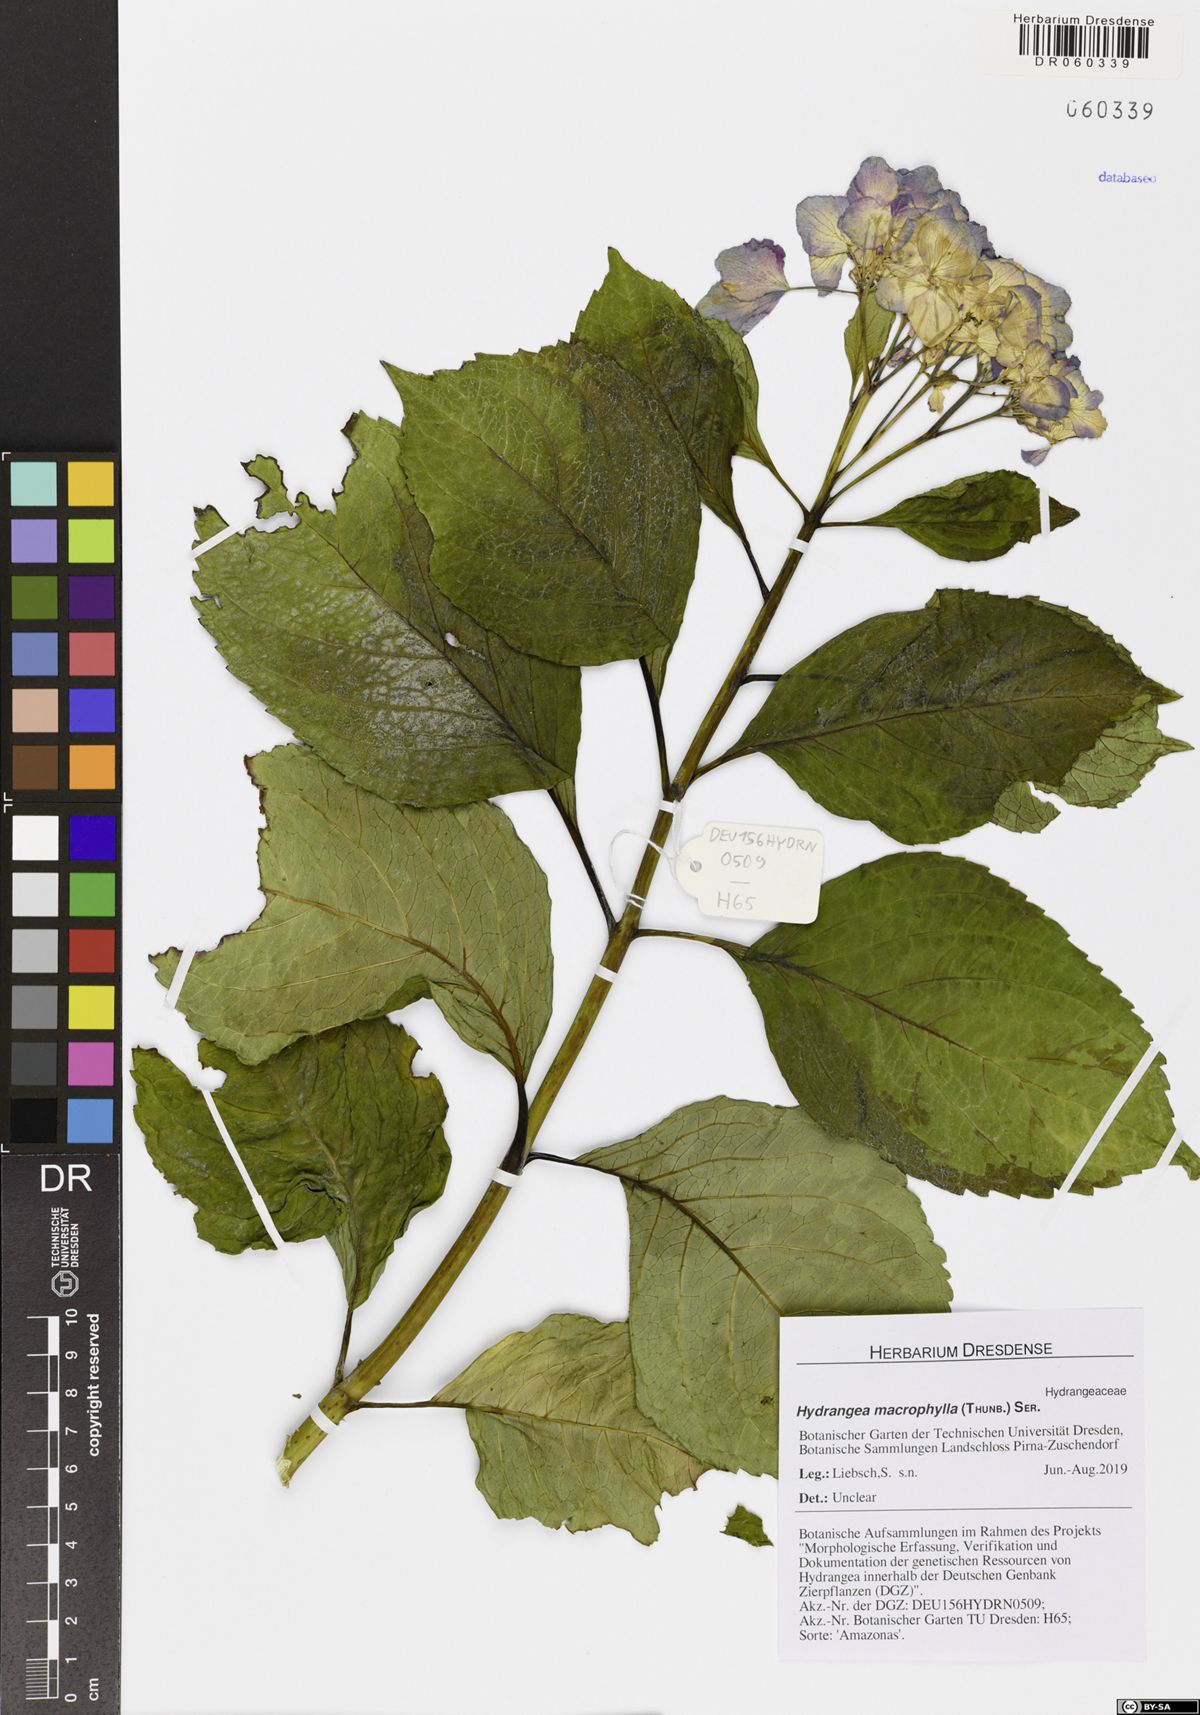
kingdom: Plantae
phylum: Tracheophyta
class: Magnoliopsida
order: Cornales
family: Hydrangeaceae
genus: Hydrangea
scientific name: Hydrangea macrophylla
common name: Hydrangea
